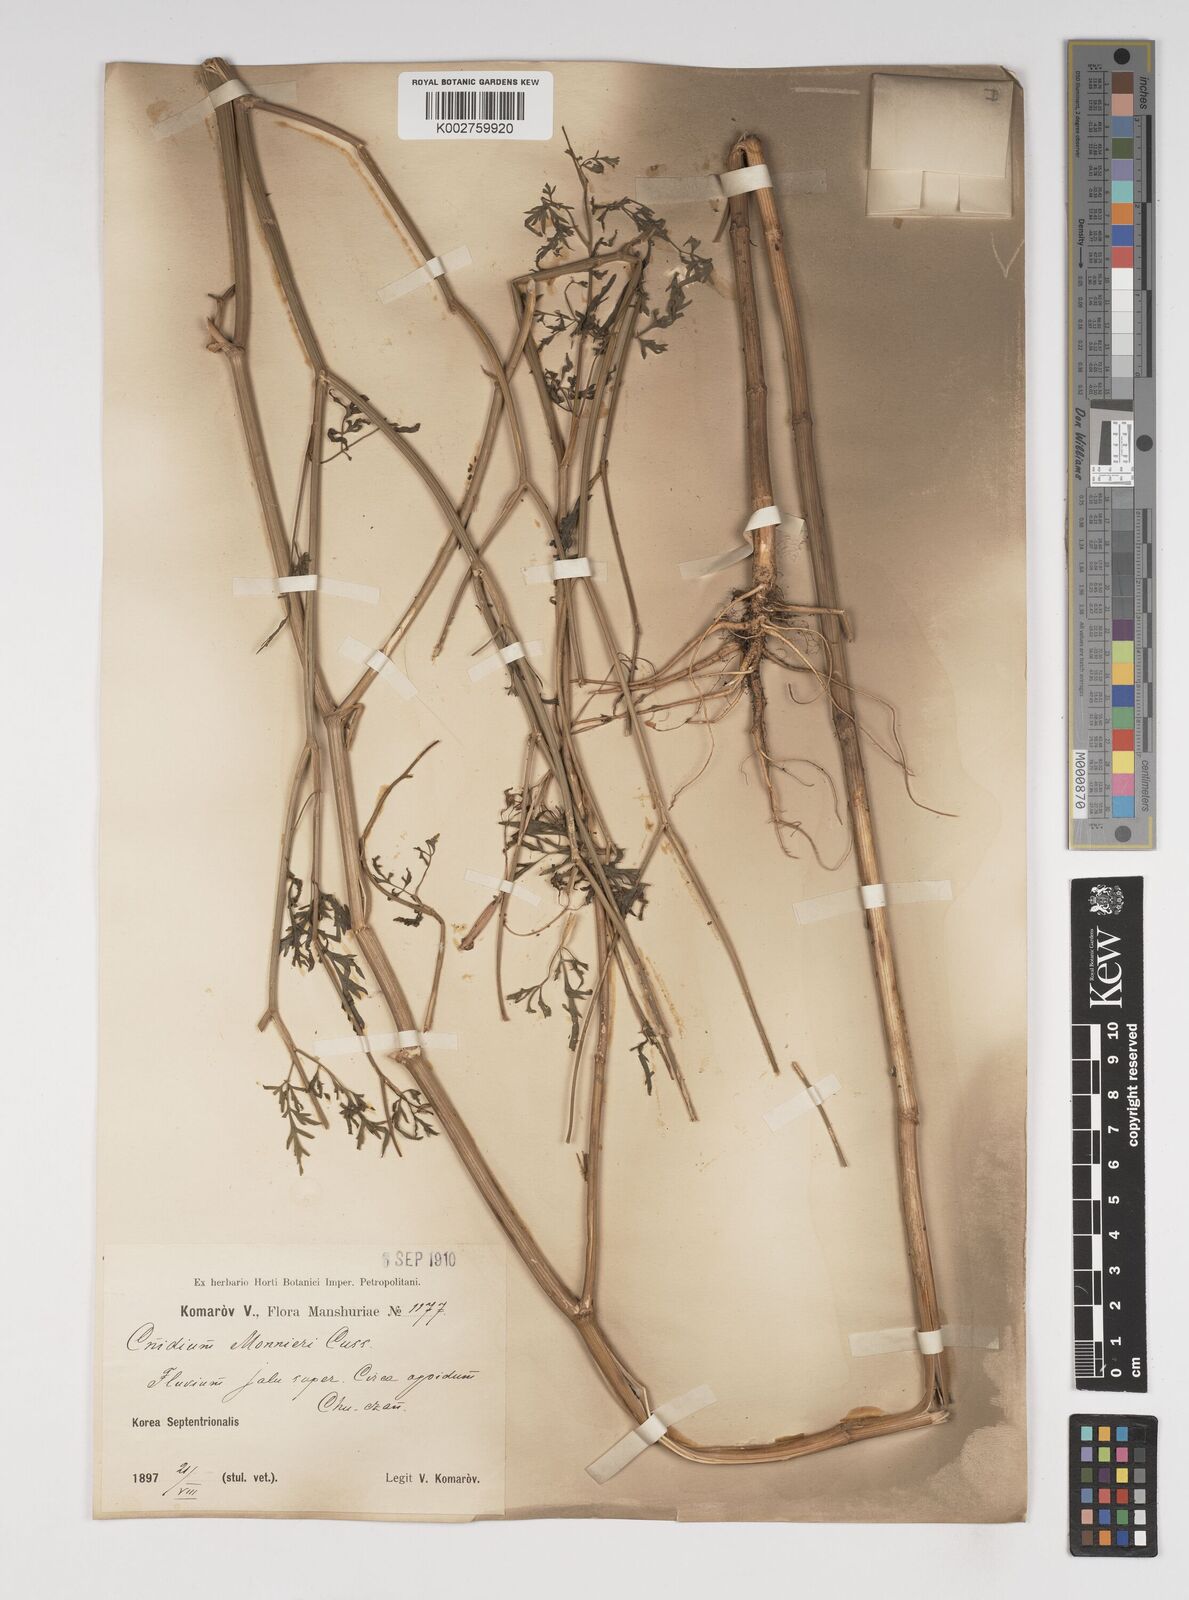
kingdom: Plantae
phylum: Tracheophyta
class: Magnoliopsida
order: Apiales
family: Apiaceae
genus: Cnidium
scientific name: Cnidium monnieri
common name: Monnier's snowparsley
